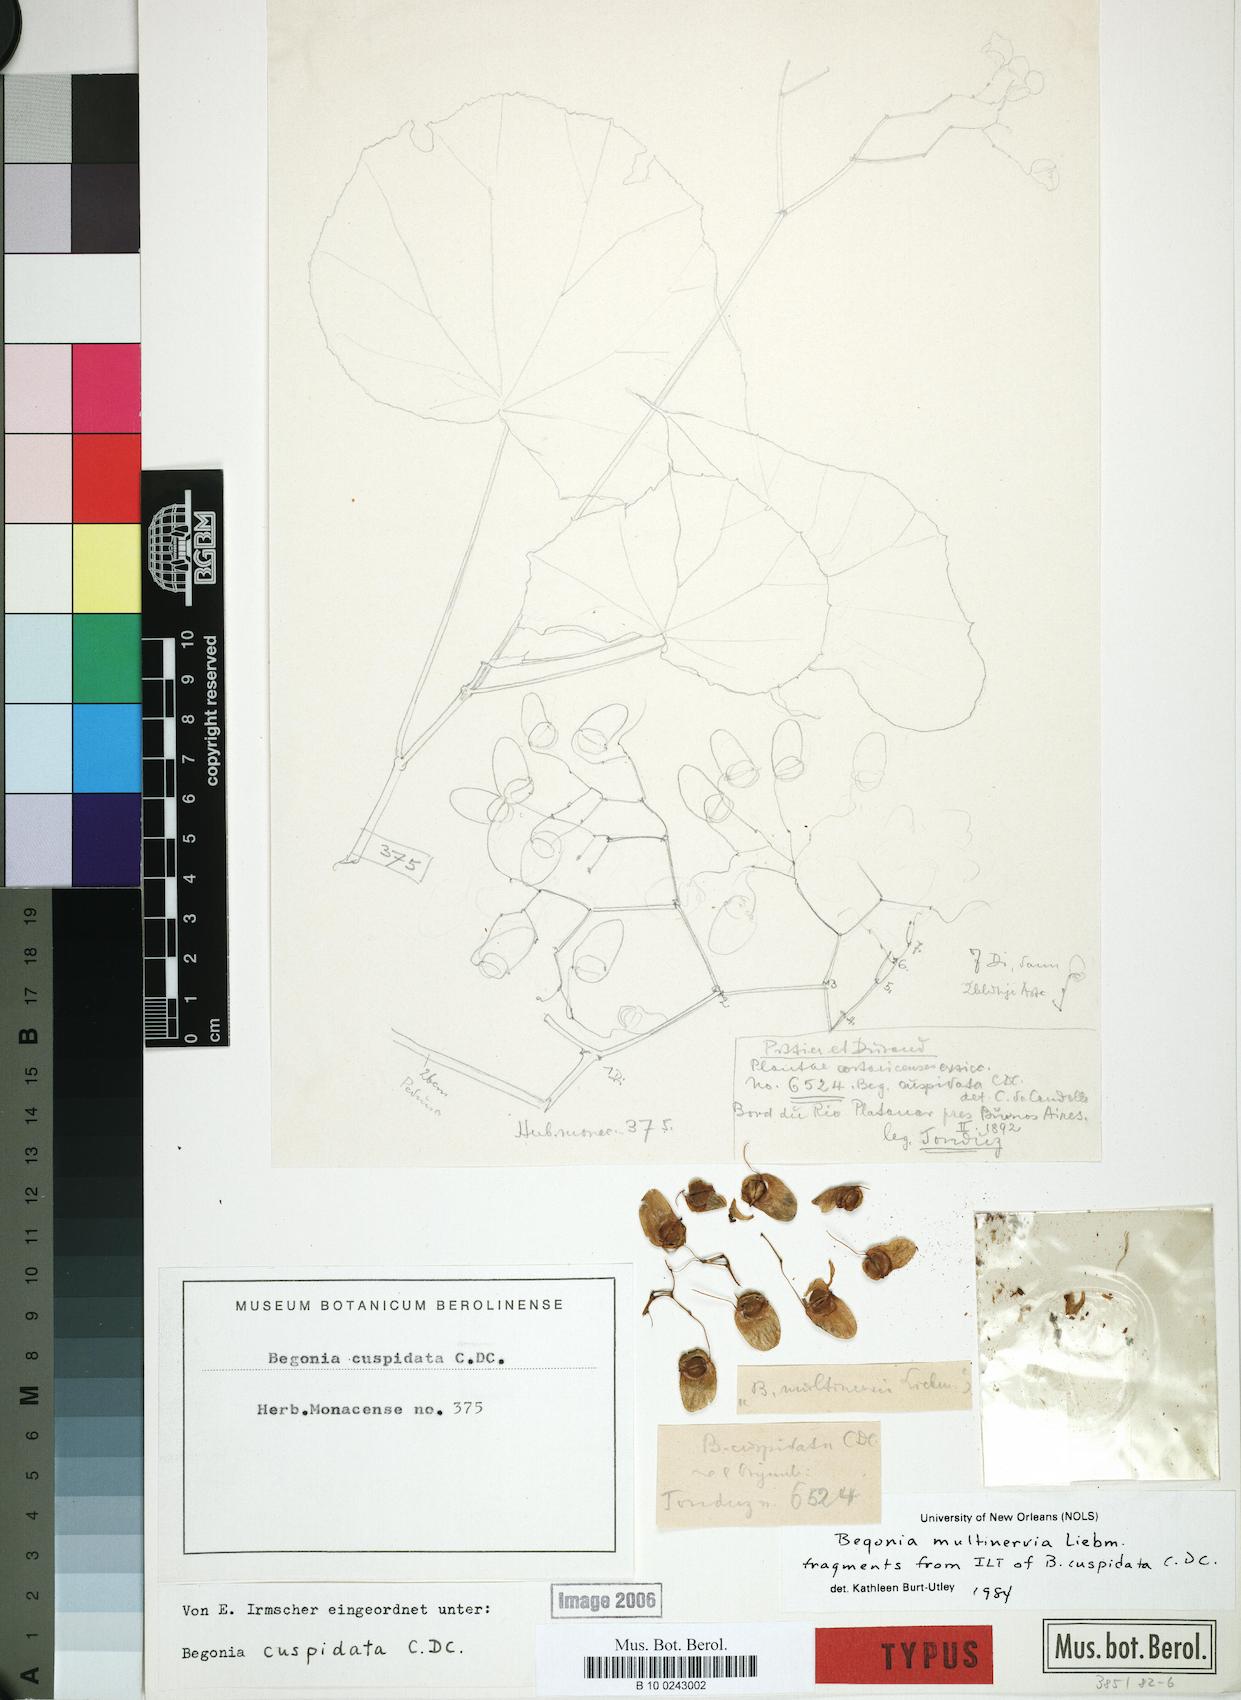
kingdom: Plantae
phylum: Tracheophyta
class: Magnoliopsida
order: Cucurbitales
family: Begoniaceae
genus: Begonia
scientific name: Begonia multinervia
